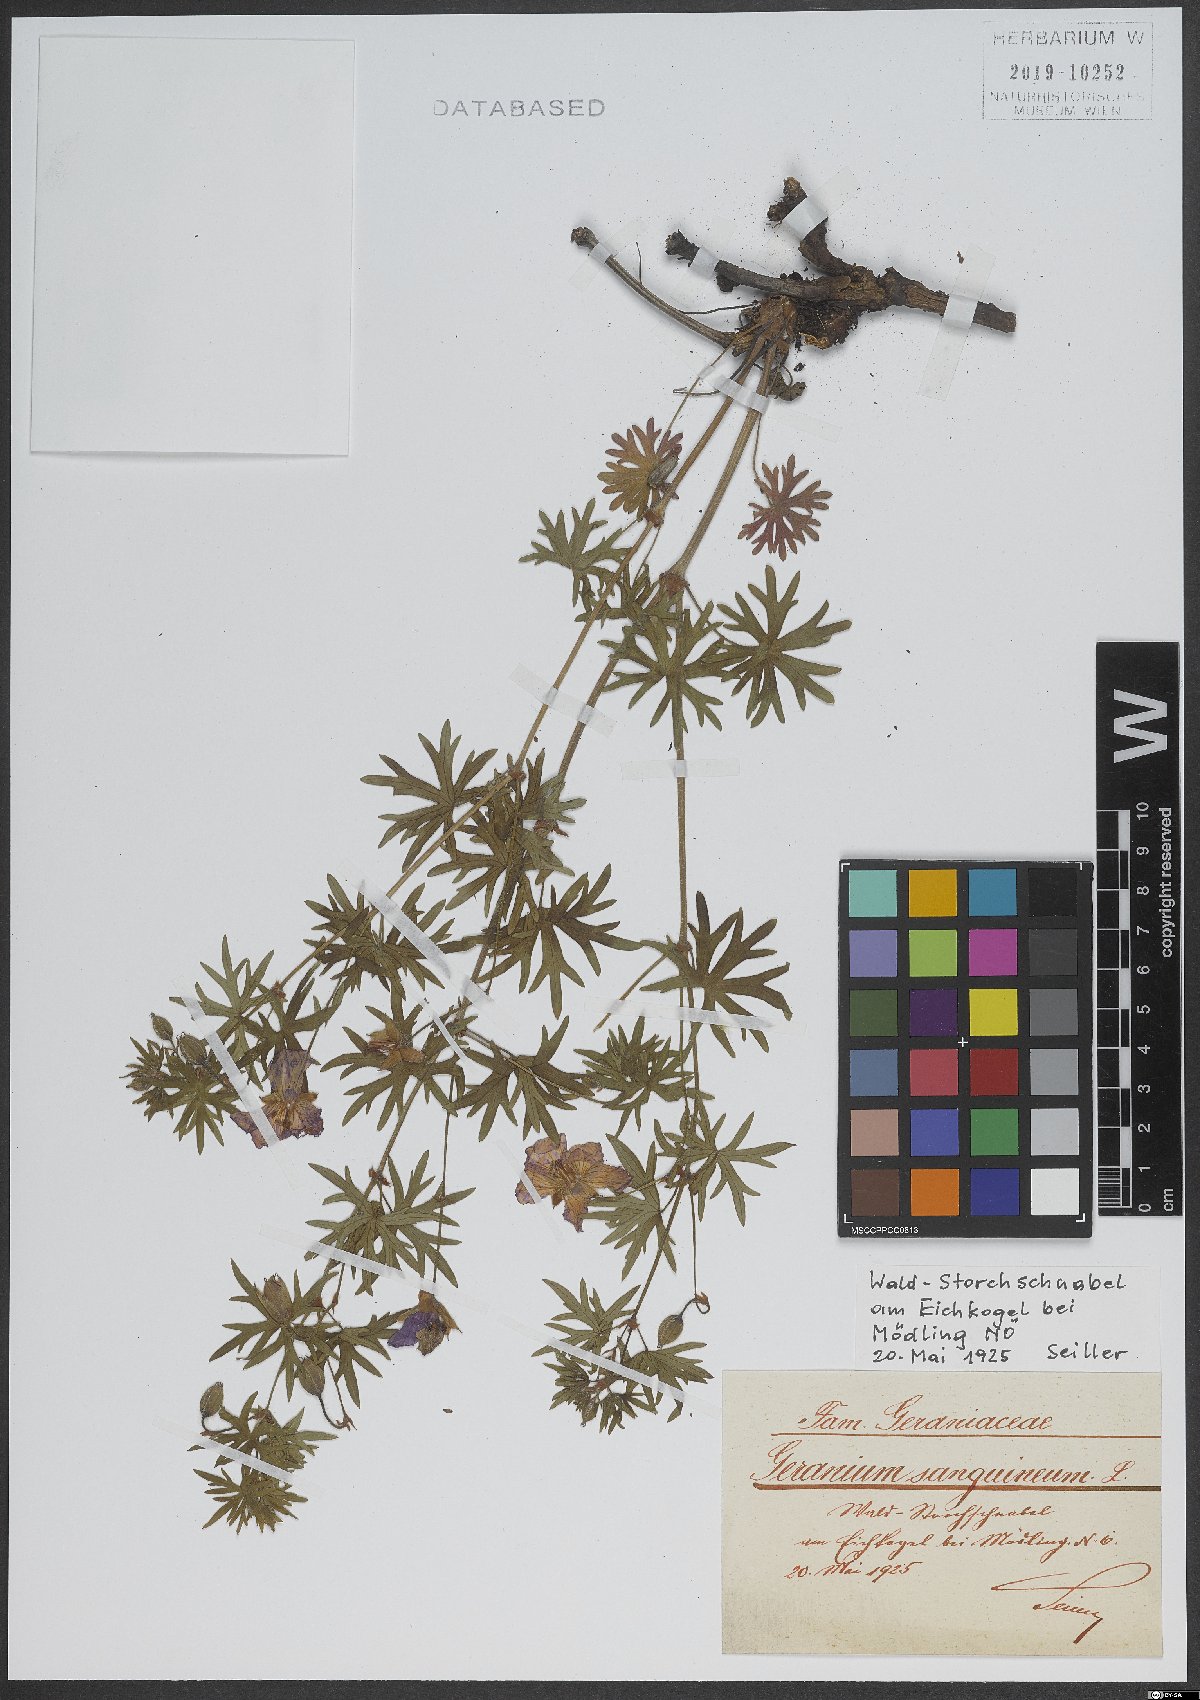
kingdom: Plantae
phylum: Tracheophyta
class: Magnoliopsida
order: Geraniales
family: Geraniaceae
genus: Geranium
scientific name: Geranium sanguineum
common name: Bloody crane's-bill
